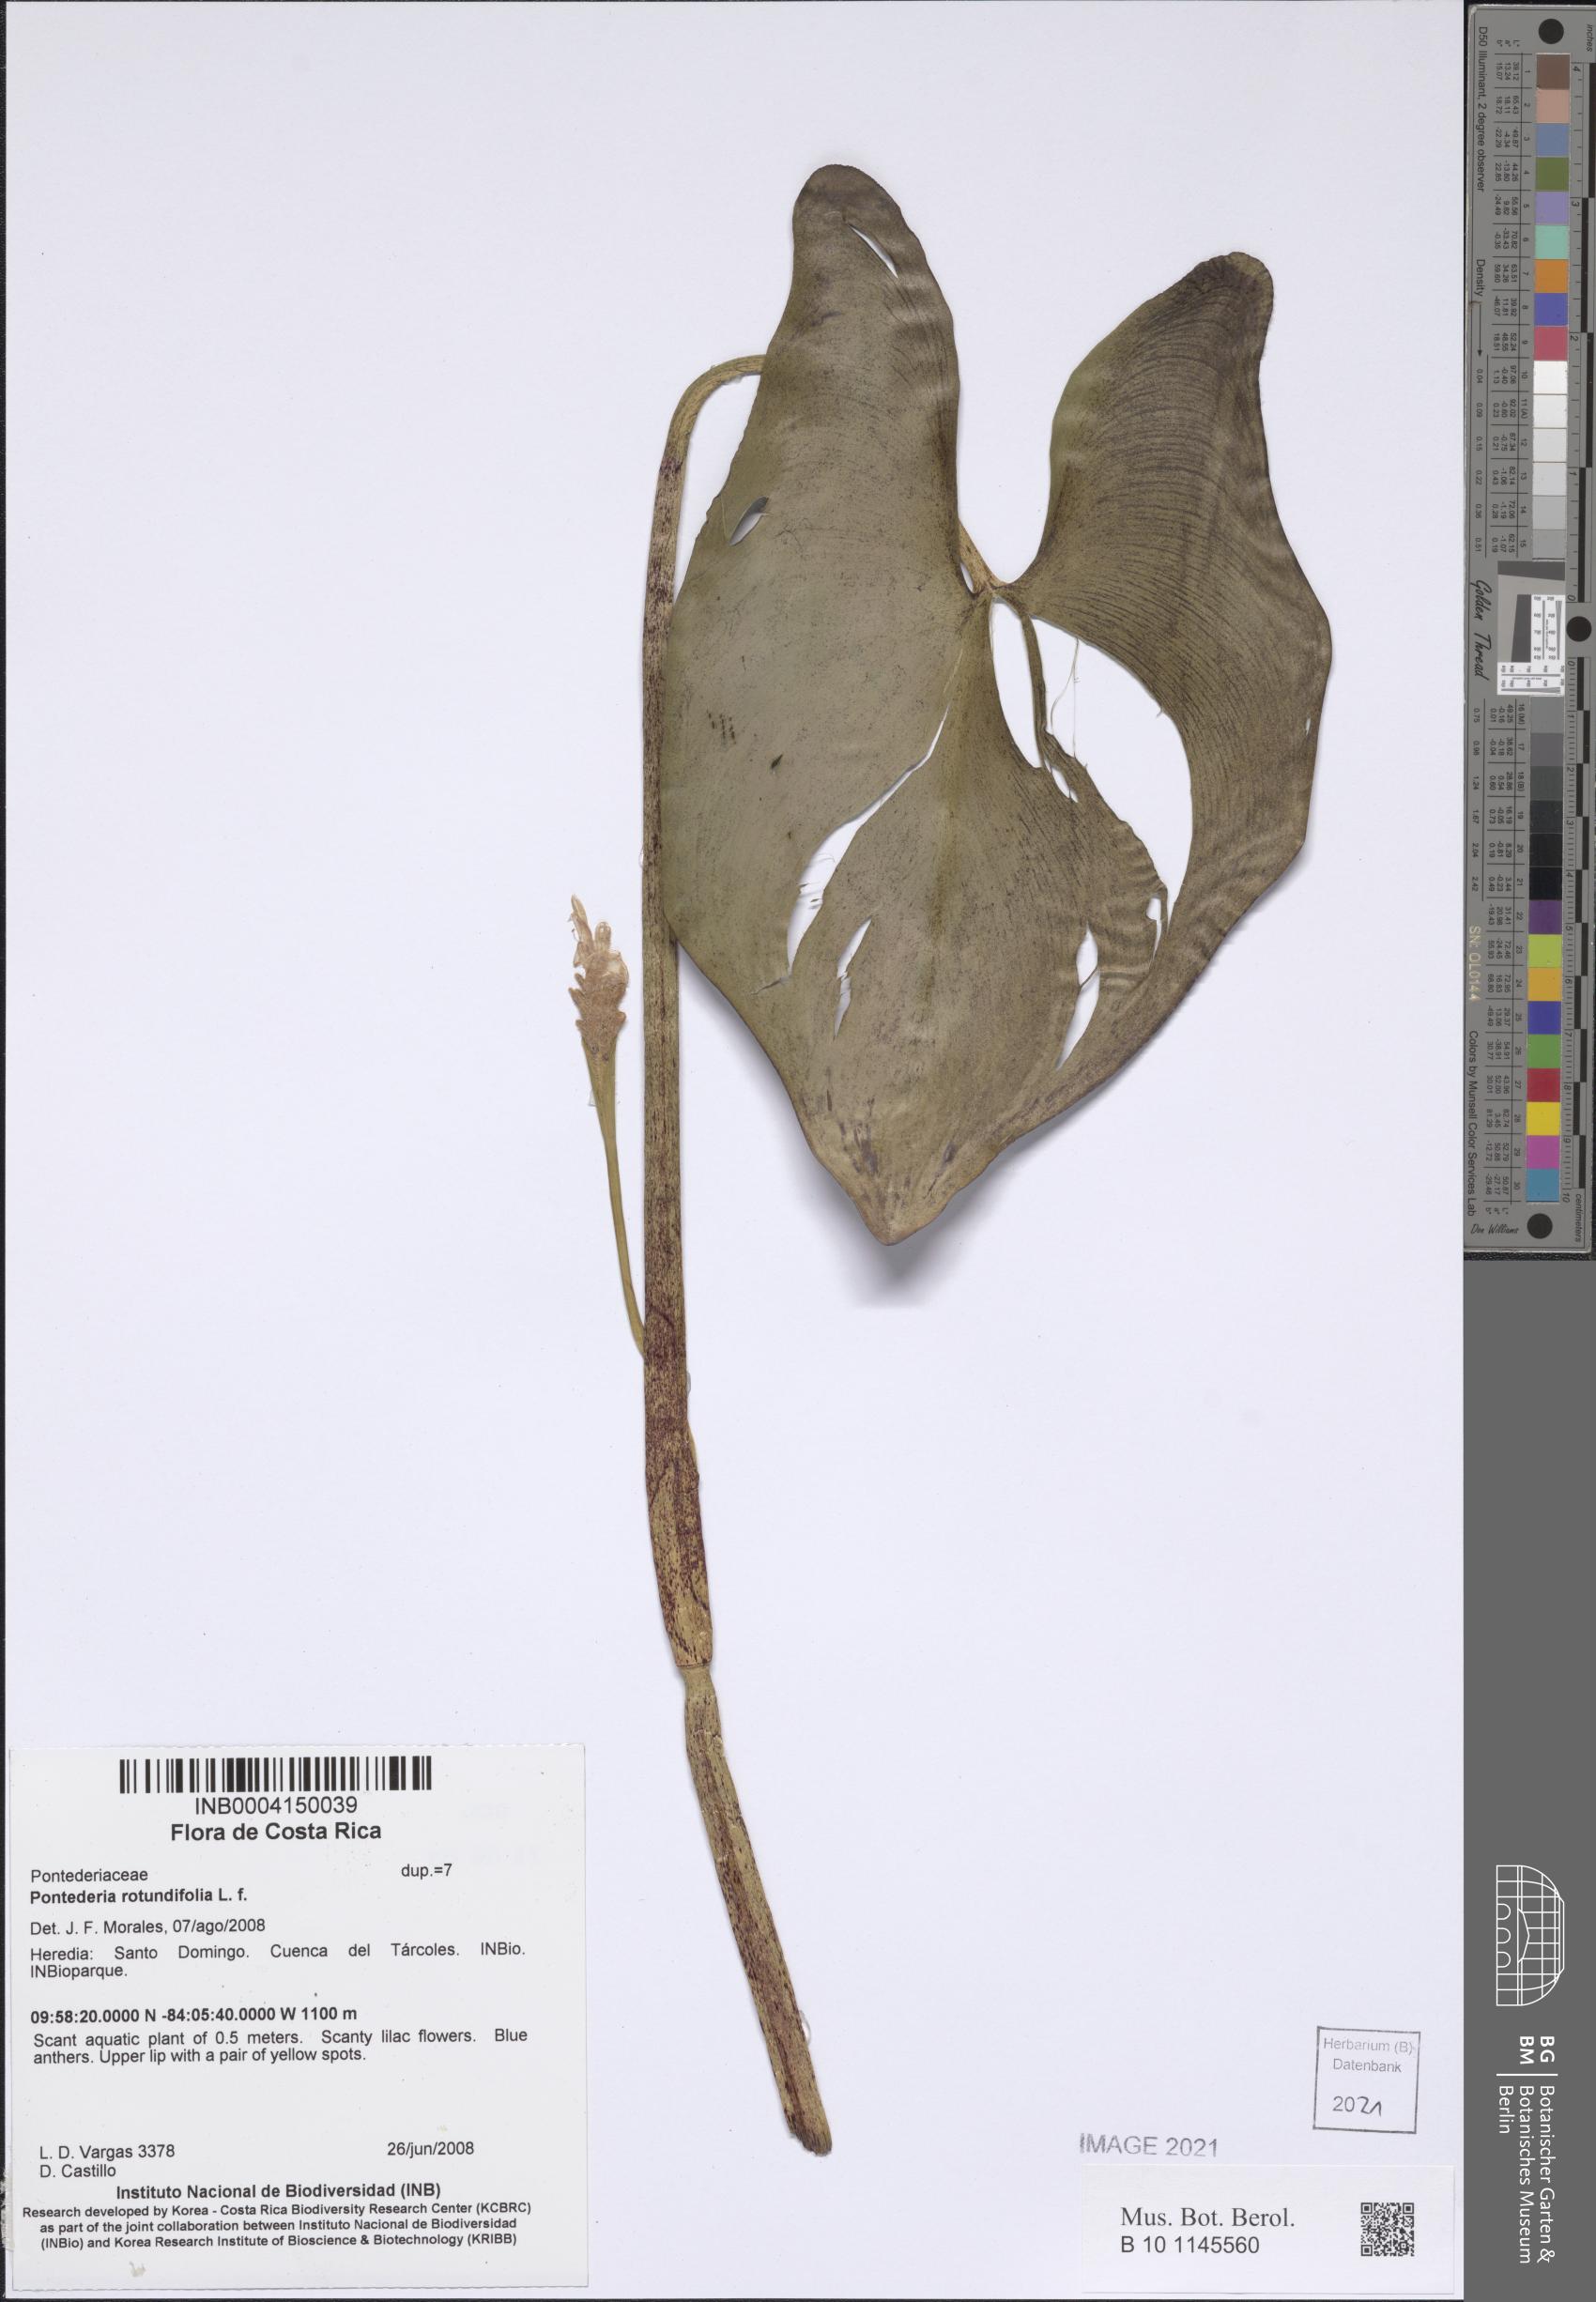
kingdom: Plantae
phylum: Tracheophyta
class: Liliopsida
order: Commelinales
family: Pontederiaceae
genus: Pontederia
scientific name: Pontederia rotundifolia
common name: Tropical pickerel-weed
